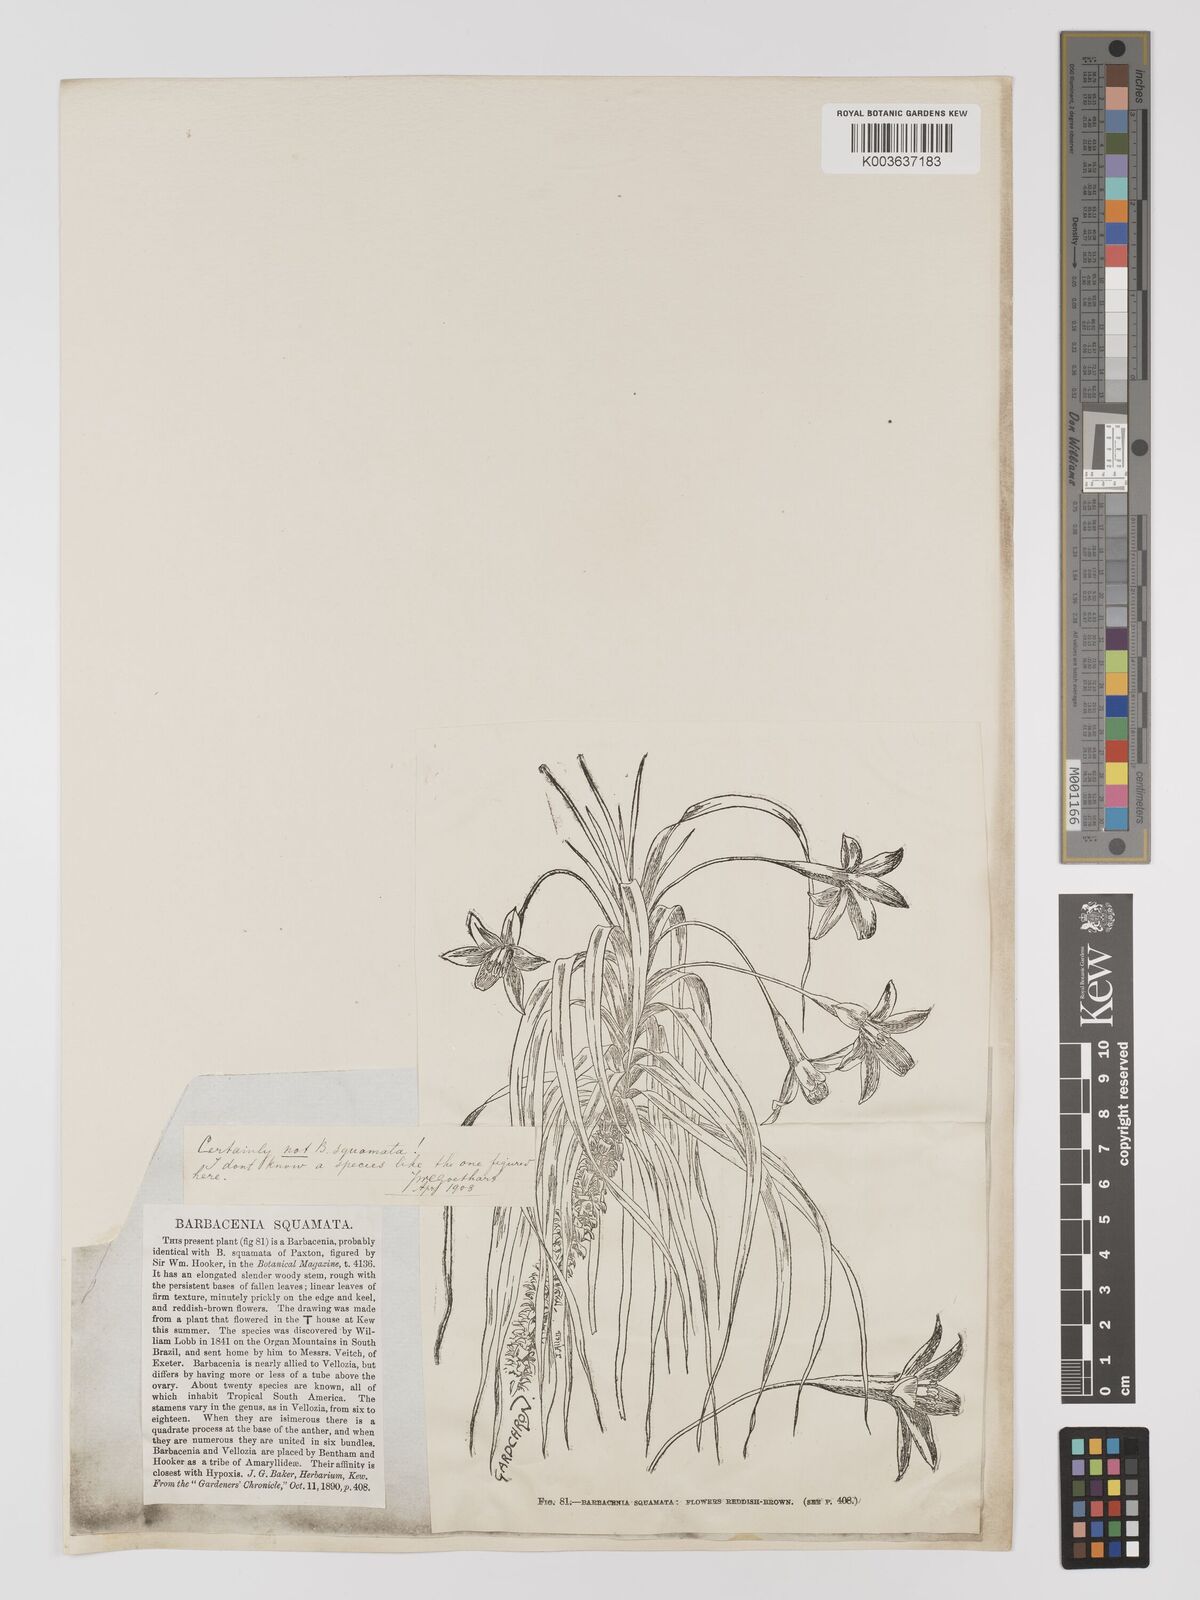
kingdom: Plantae
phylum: Tracheophyta
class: Liliopsida
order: Pandanales
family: Velloziaceae
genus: Barbacenia
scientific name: Barbacenia squamata
